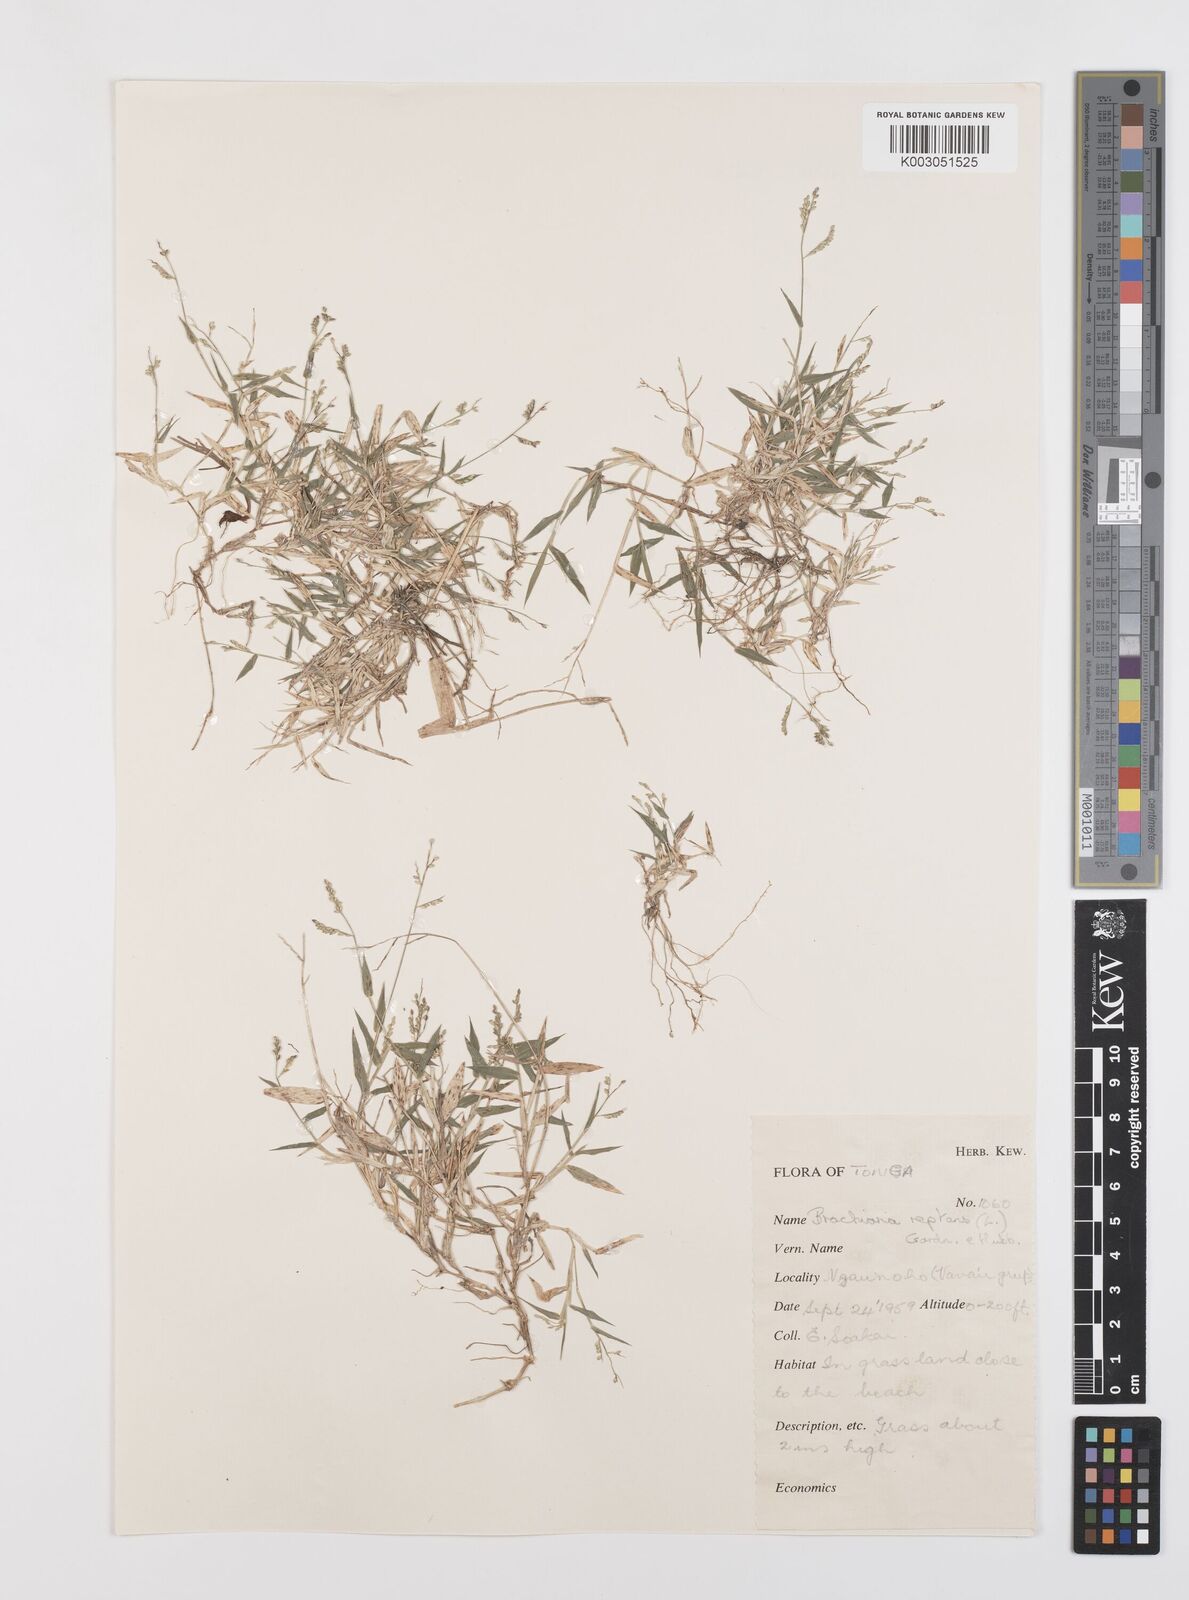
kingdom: Plantae
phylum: Tracheophyta
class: Liliopsida
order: Poales
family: Poaceae
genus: Urochloa
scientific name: Urochloa reptans
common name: Sprawling signalgrass
